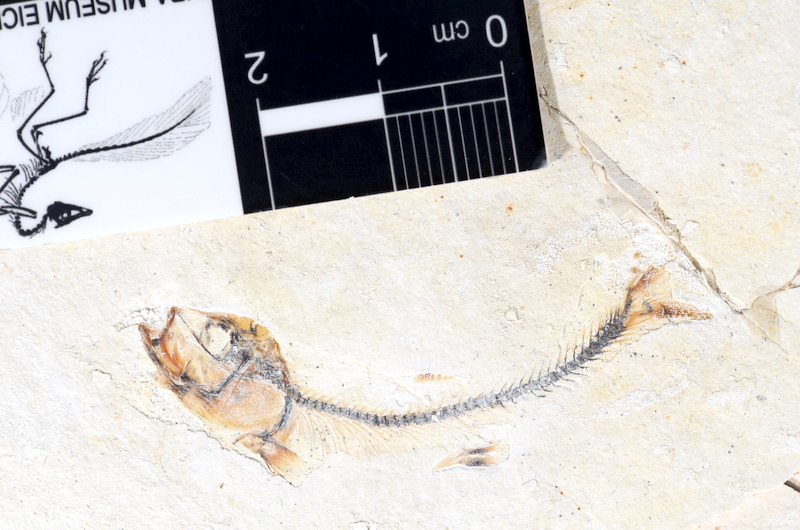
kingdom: Animalia
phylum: Chordata
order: Salmoniformes
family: Orthogonikleithridae
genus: Orthogonikleithrus
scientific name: Orthogonikleithrus hoelli
